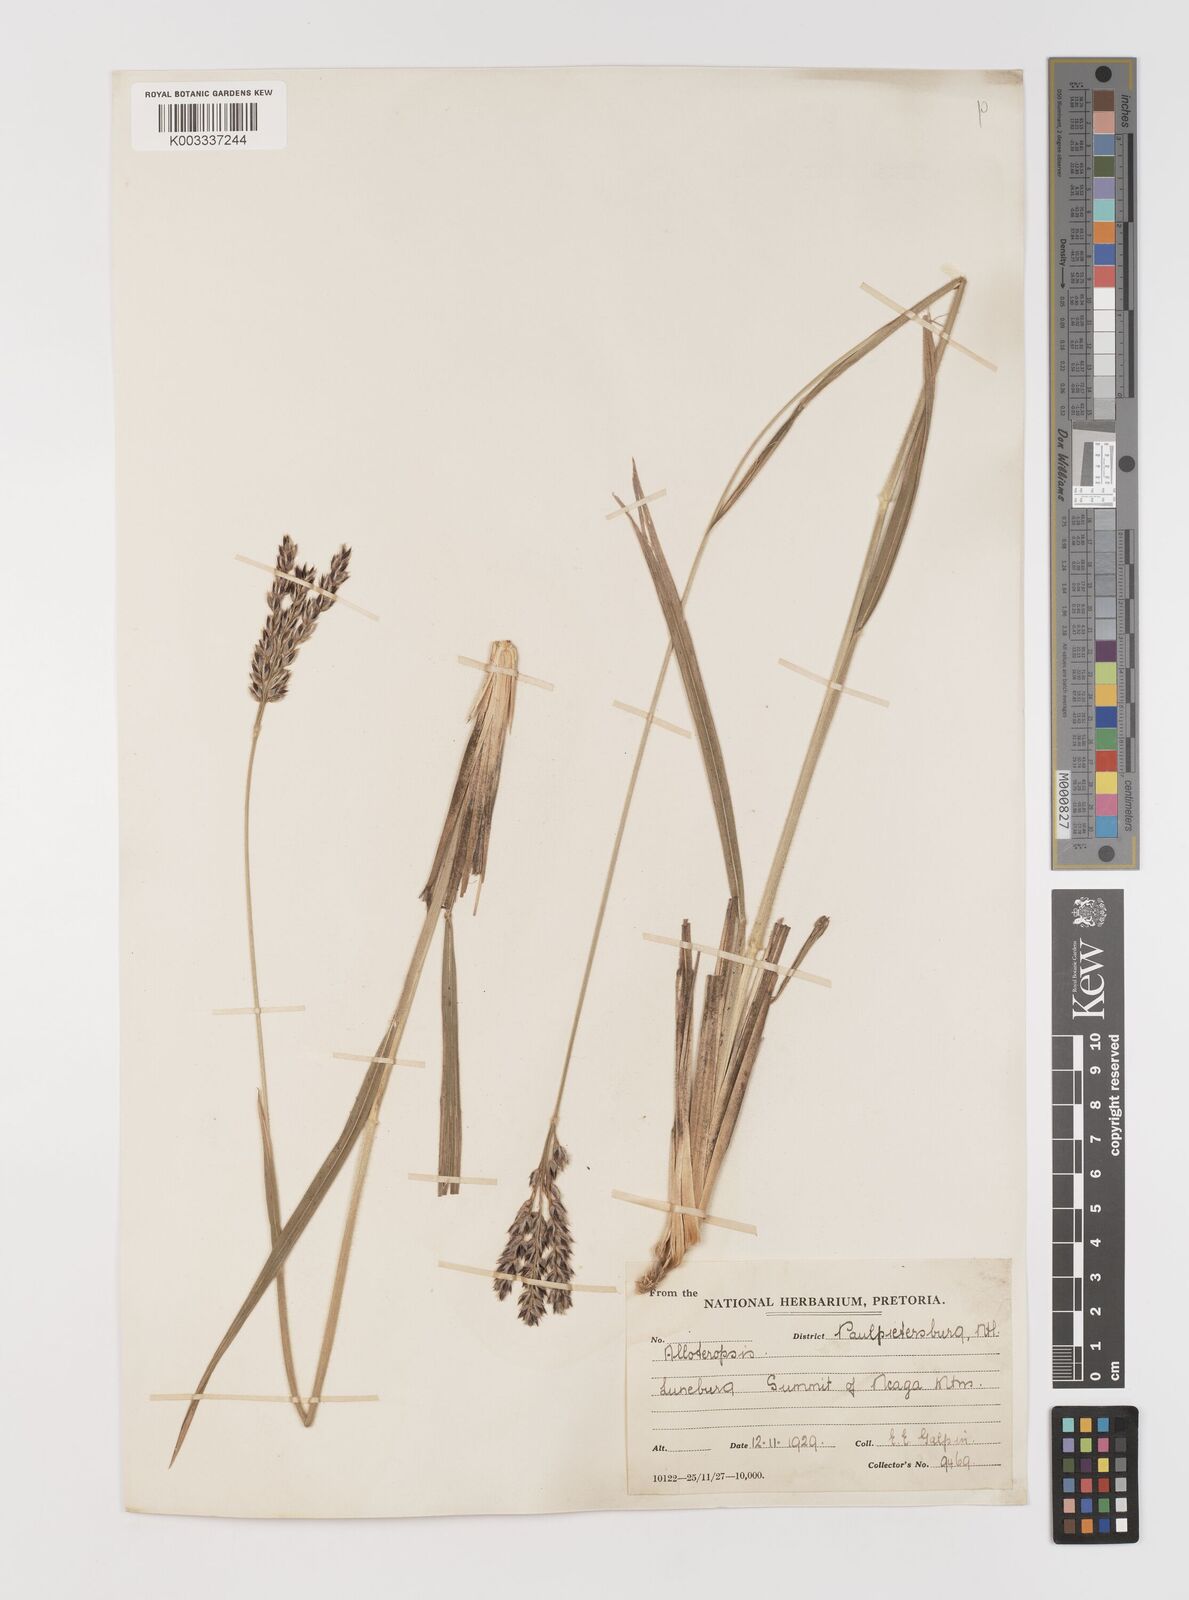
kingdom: Plantae
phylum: Tracheophyta
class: Liliopsida
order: Poales
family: Poaceae
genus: Alloteropsis
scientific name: Alloteropsis semialata
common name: Cockatoo grass
